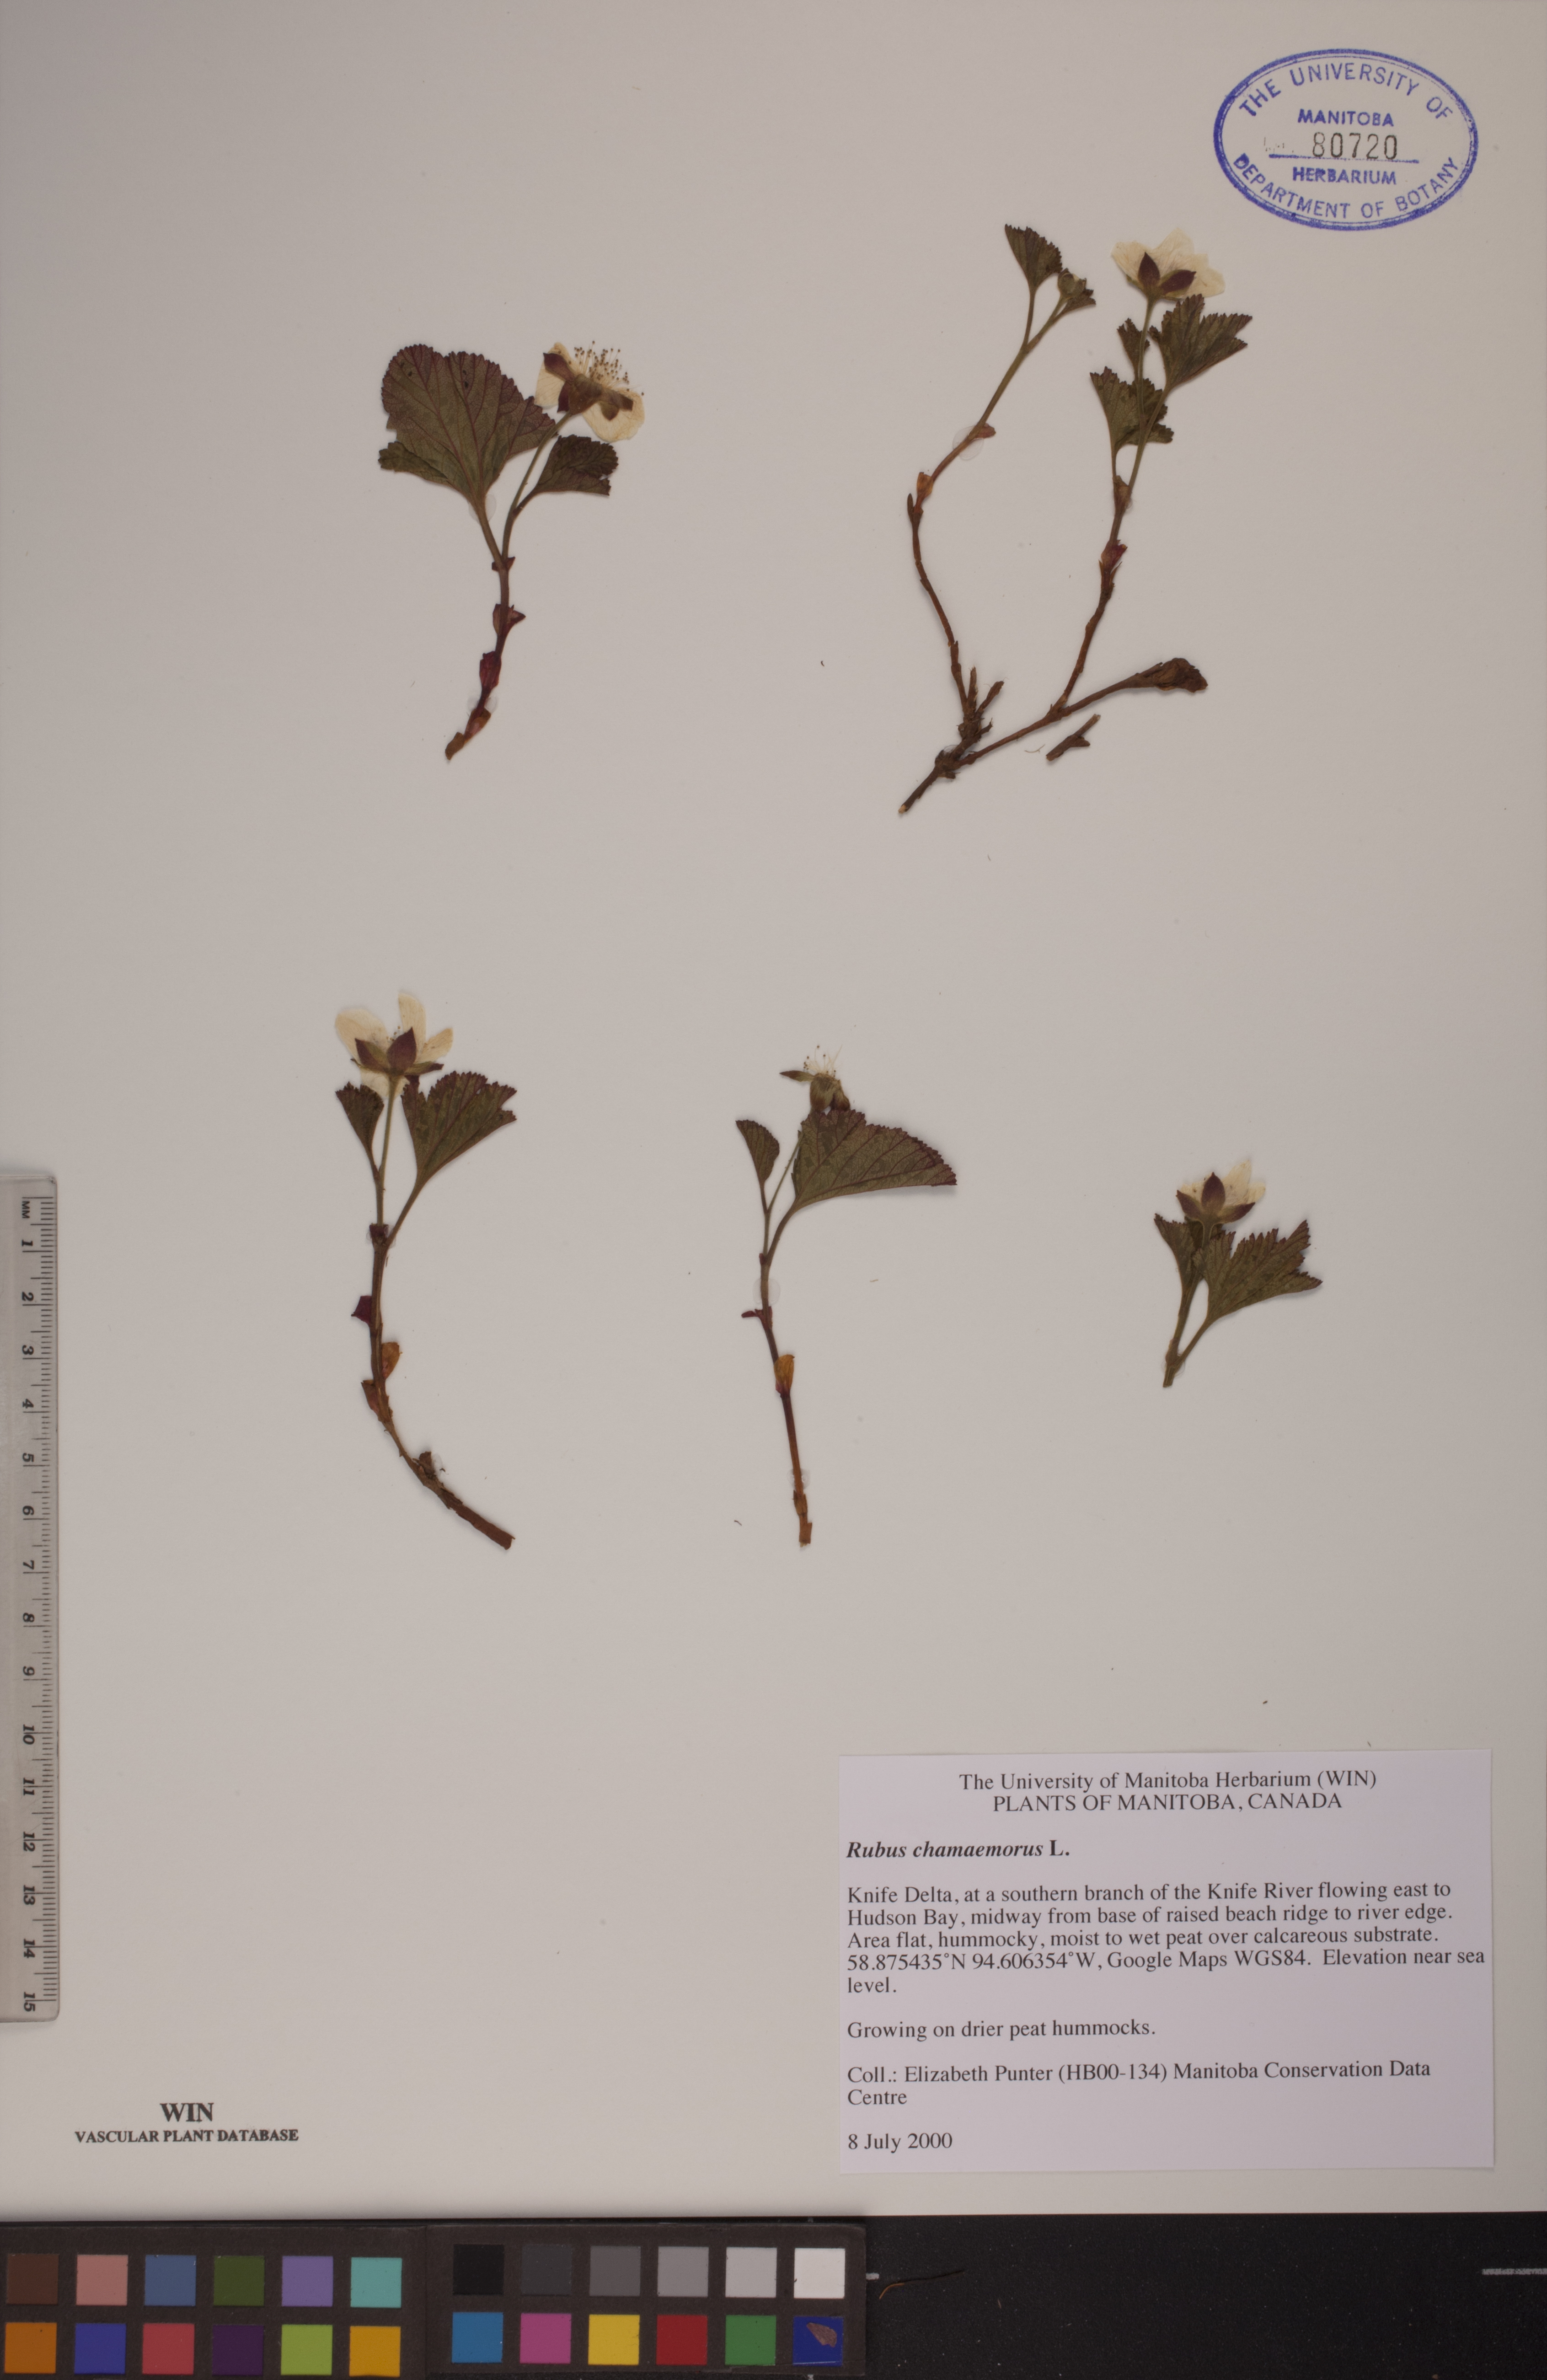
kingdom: Plantae
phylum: Tracheophyta
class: Magnoliopsida
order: Rosales
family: Rosaceae
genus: Rubus
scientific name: Rubus chamaemorus
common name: Cloudberry
